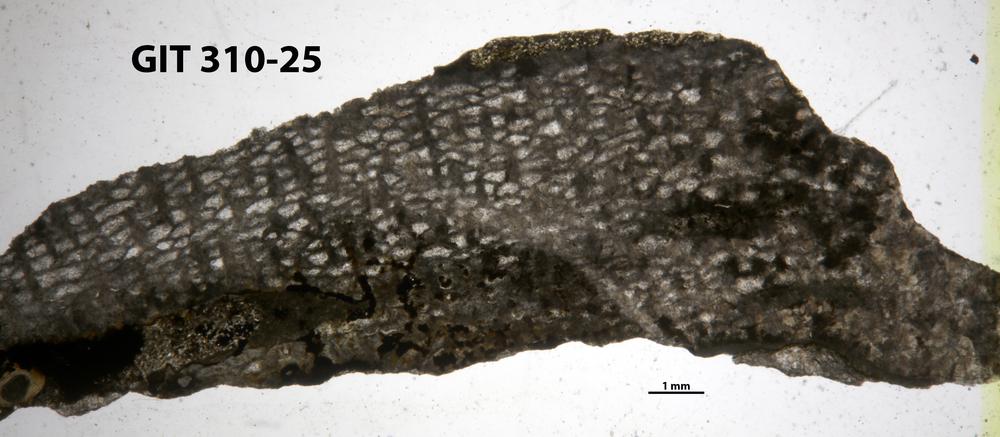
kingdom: Animalia
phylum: Porifera
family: Labechiidae
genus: Labechia
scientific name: Labechia
